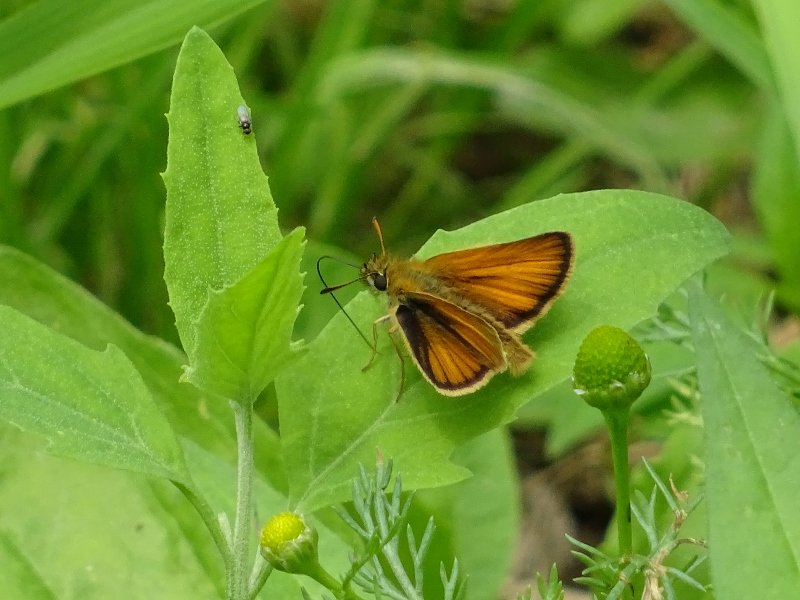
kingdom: Animalia
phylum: Arthropoda
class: Insecta
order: Lepidoptera
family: Hesperiidae
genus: Thymelicus
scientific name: Thymelicus lineola
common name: European Skipper
